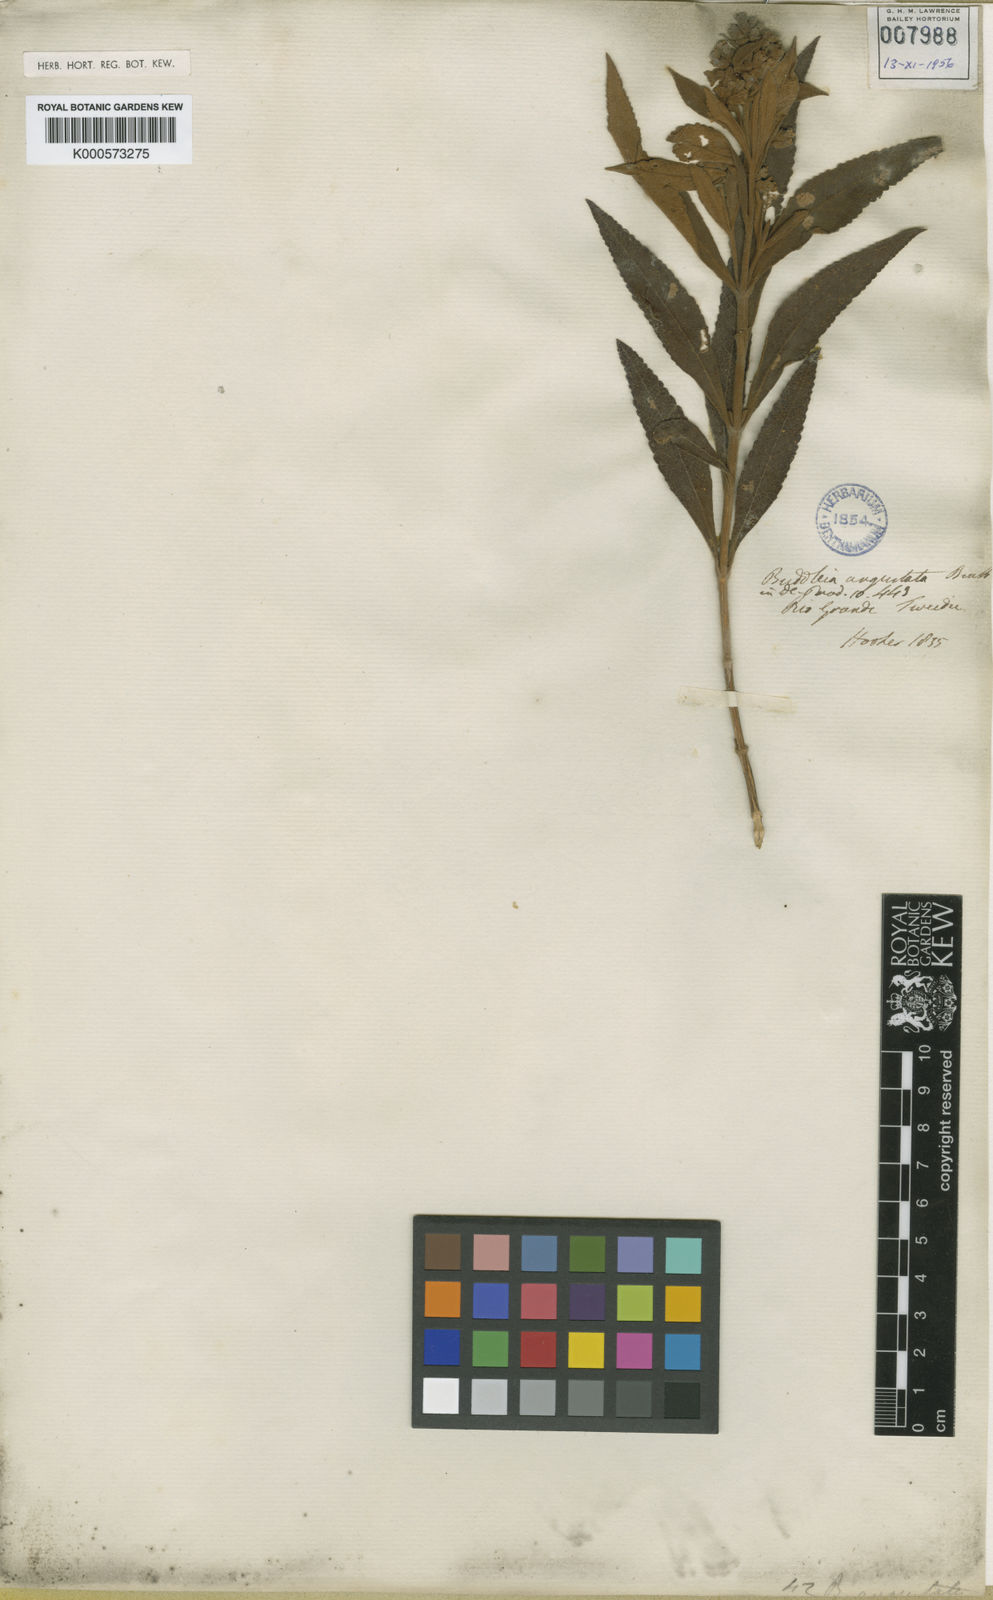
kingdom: Plantae
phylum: Tracheophyta
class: Magnoliopsida
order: Lamiales
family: Scrophulariaceae
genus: Buddleja
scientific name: Buddleja elegans
